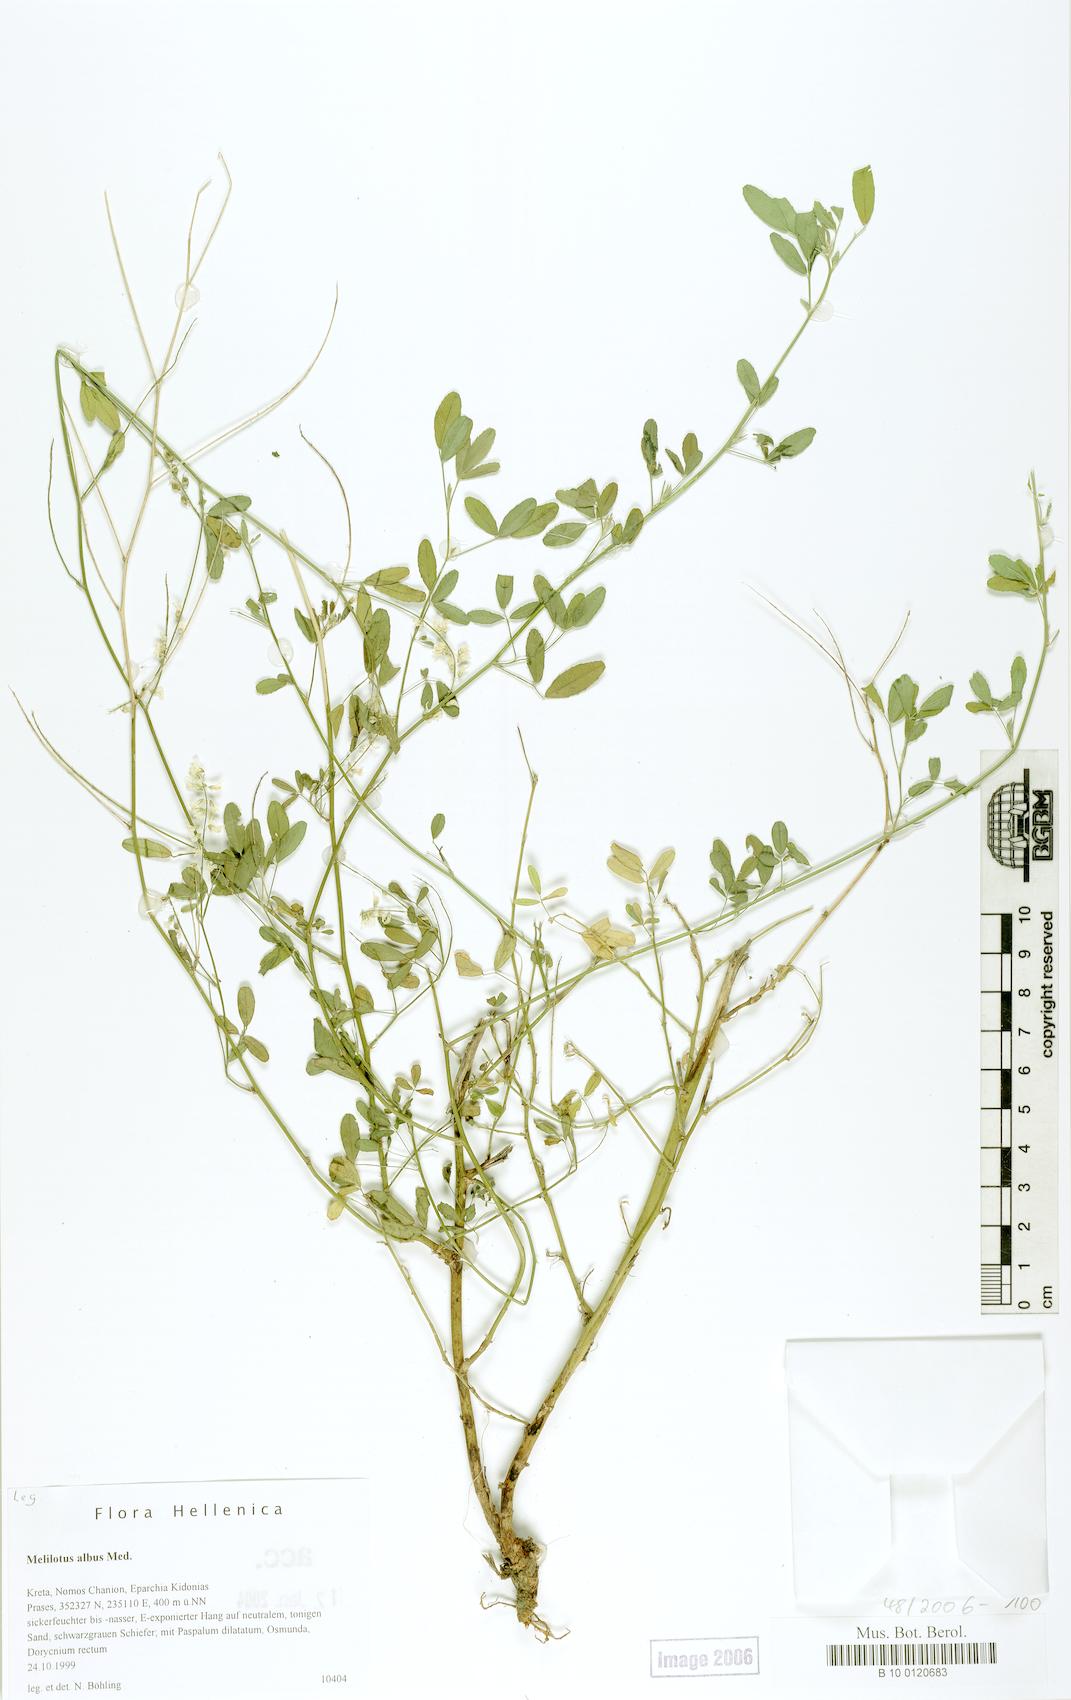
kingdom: Plantae
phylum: Tracheophyta
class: Magnoliopsida
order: Fabales
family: Fabaceae
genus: Melilotus
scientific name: Melilotus albus
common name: White melilot
